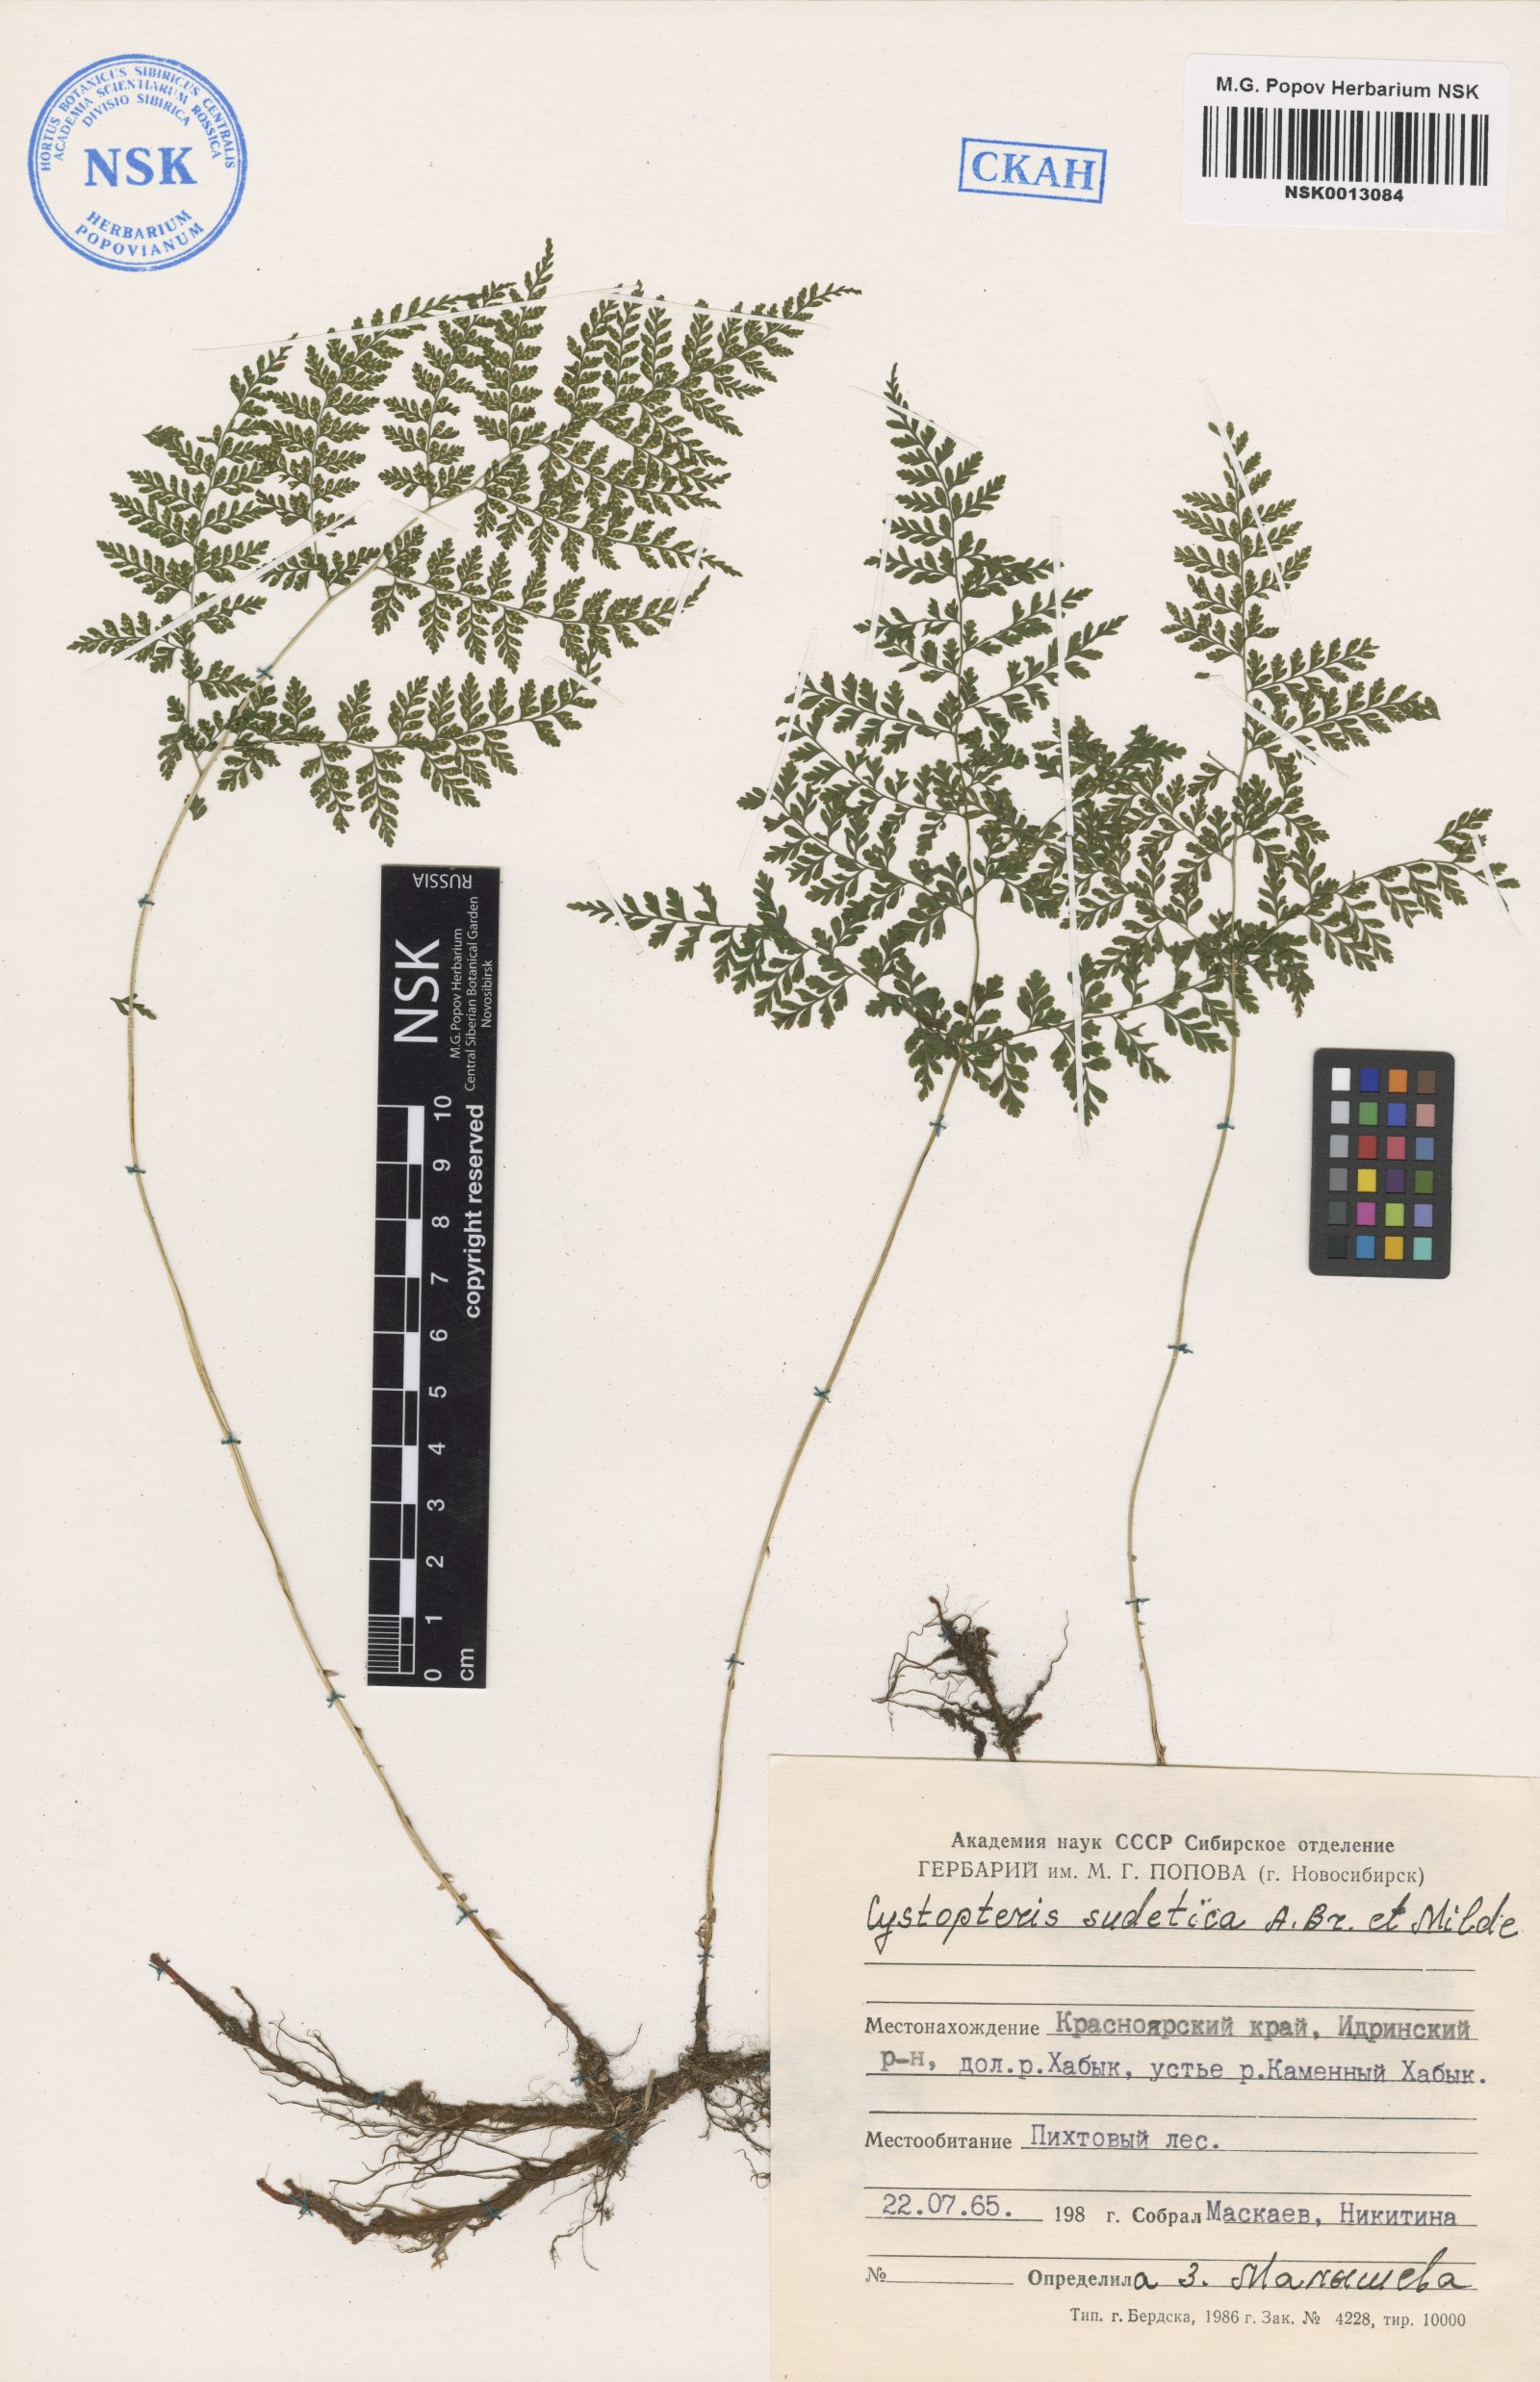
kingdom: Plantae
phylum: Tracheophyta
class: Polypodiopsida
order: Polypodiales
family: Cystopteridaceae
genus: Cystopteris
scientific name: Cystopteris sudetica
